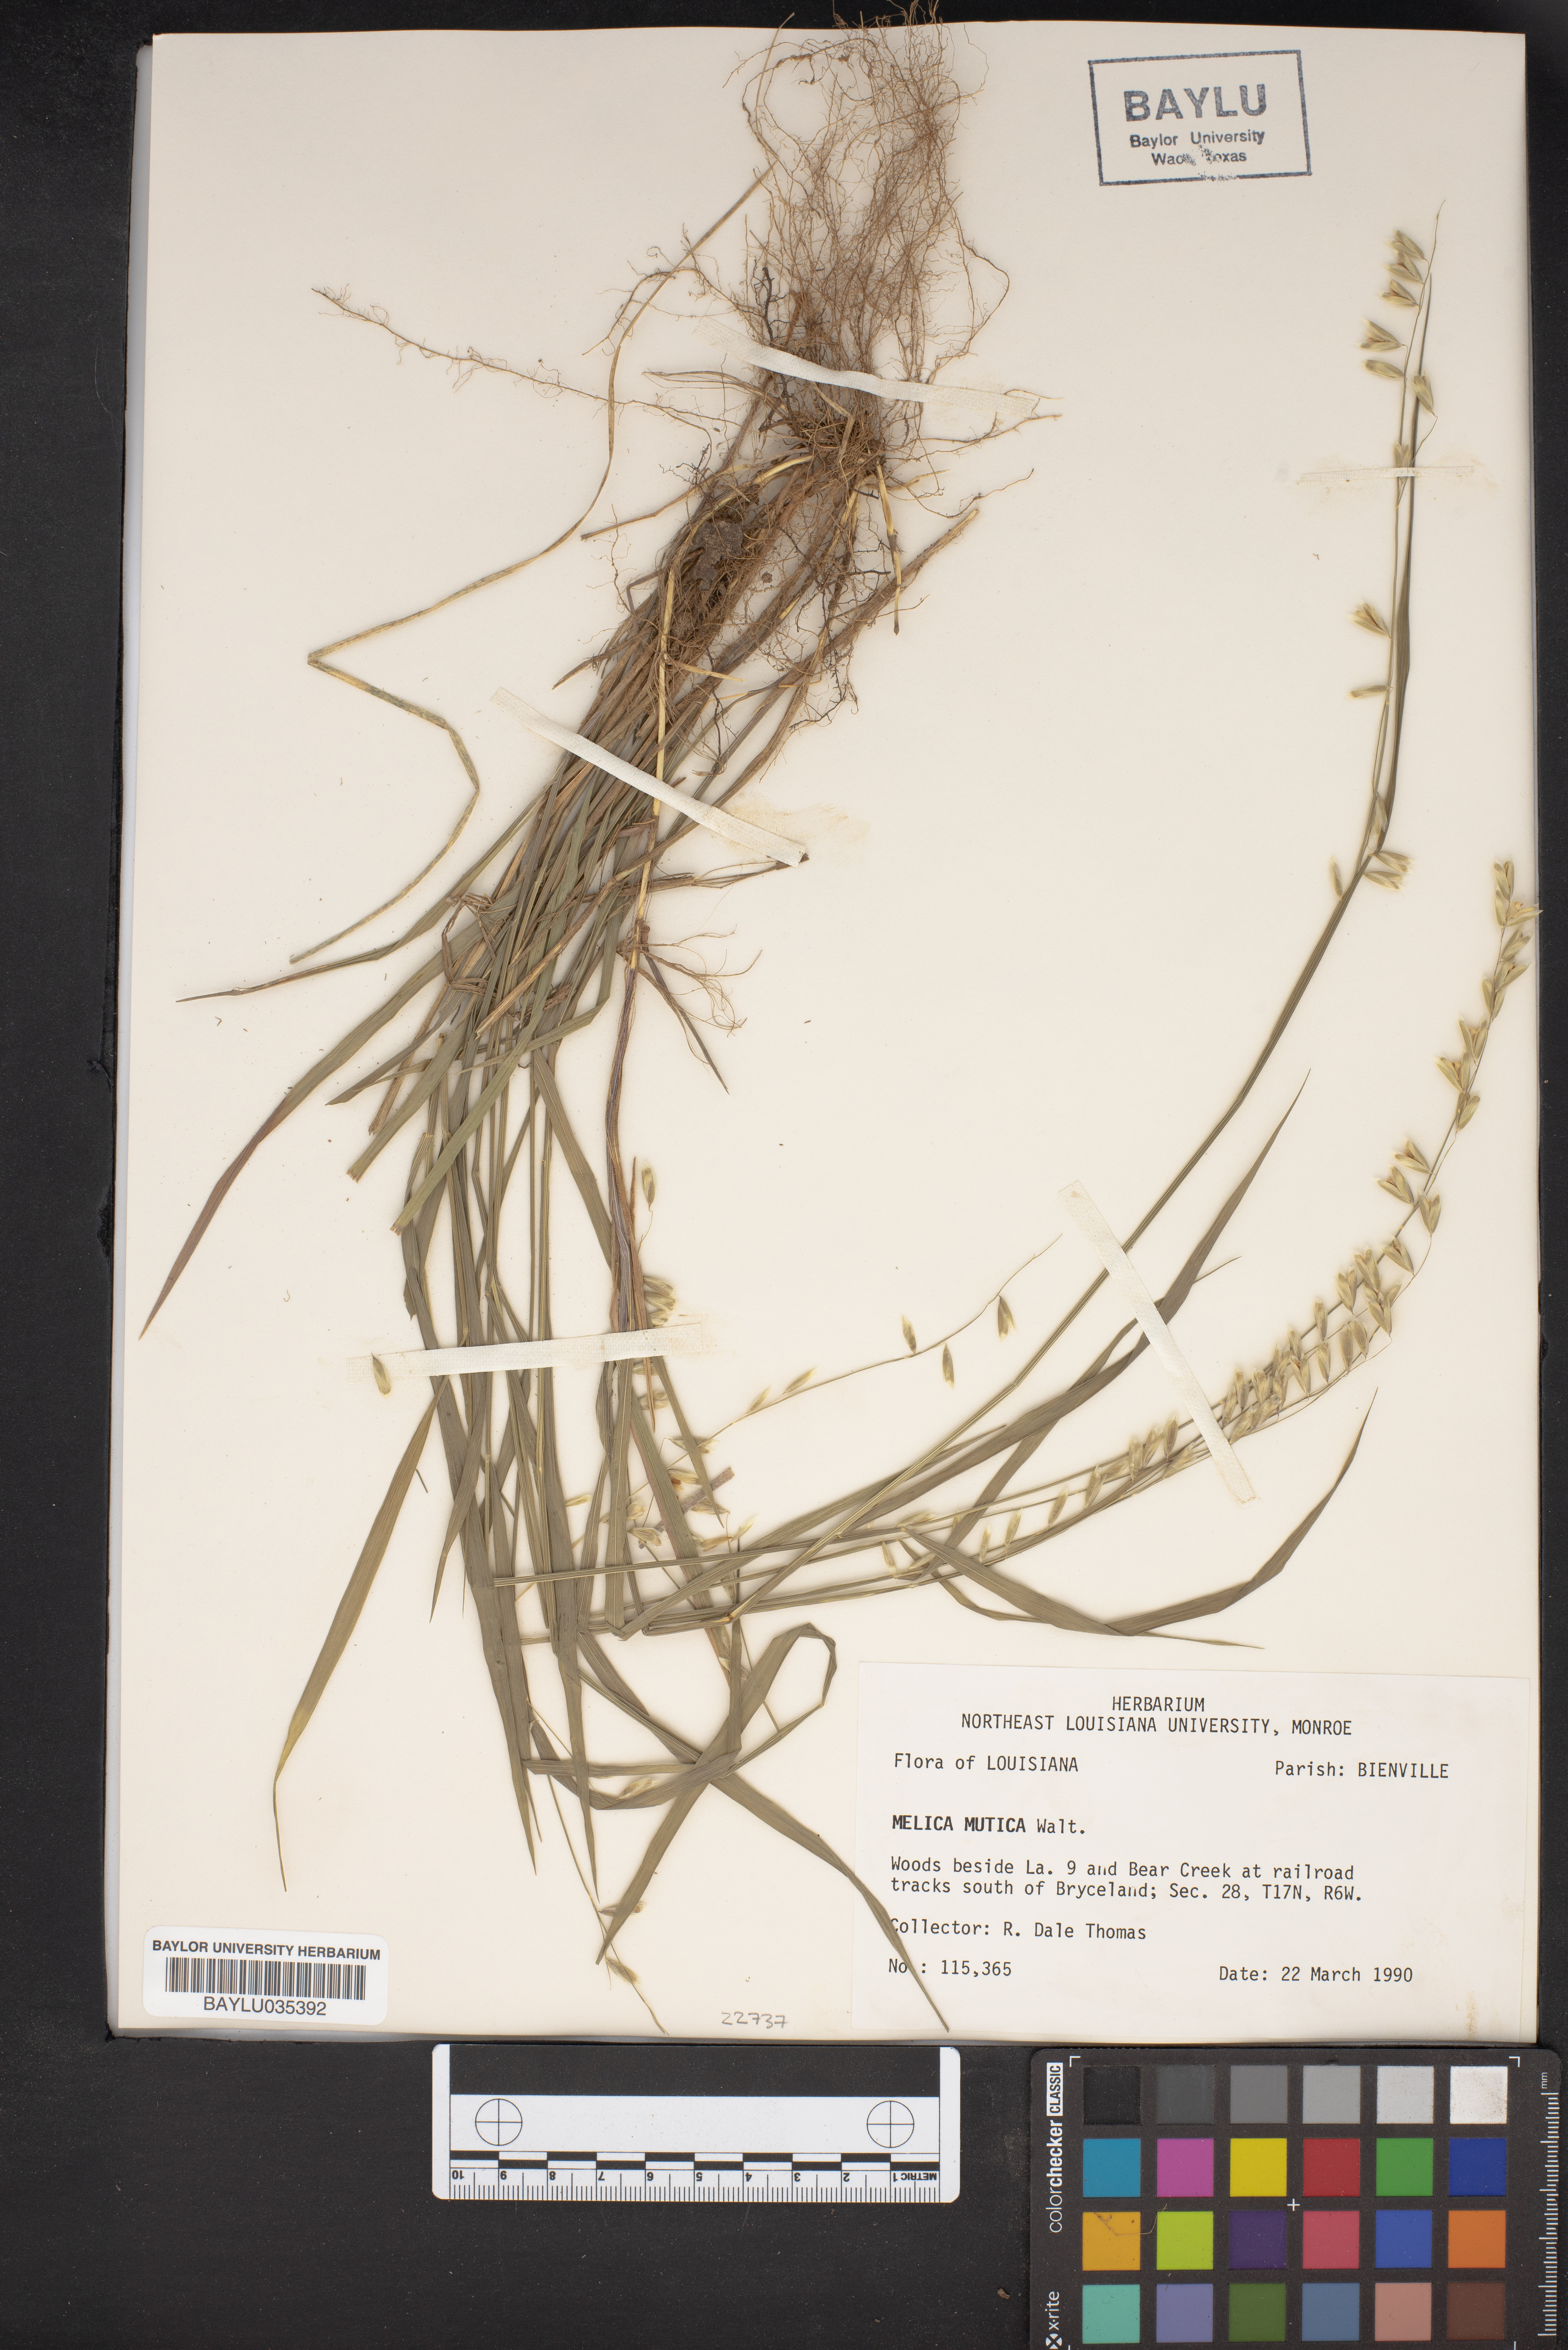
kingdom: Plantae
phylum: Tracheophyta
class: Liliopsida
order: Poales
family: Poaceae
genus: Melica
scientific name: Melica mutica
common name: Two-flower melic
